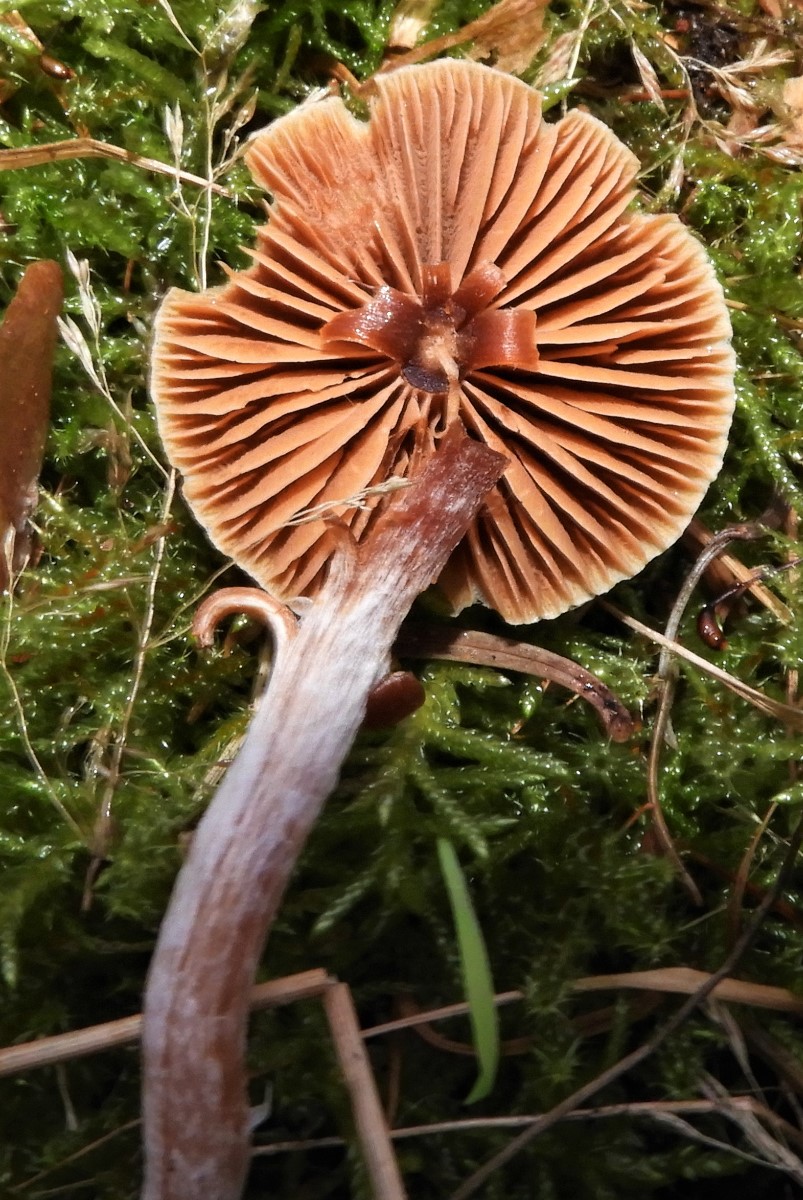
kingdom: Fungi
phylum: Basidiomycota
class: Agaricomycetes
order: Agaricales
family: Cortinariaceae
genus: Cortinarius
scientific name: Cortinarius
